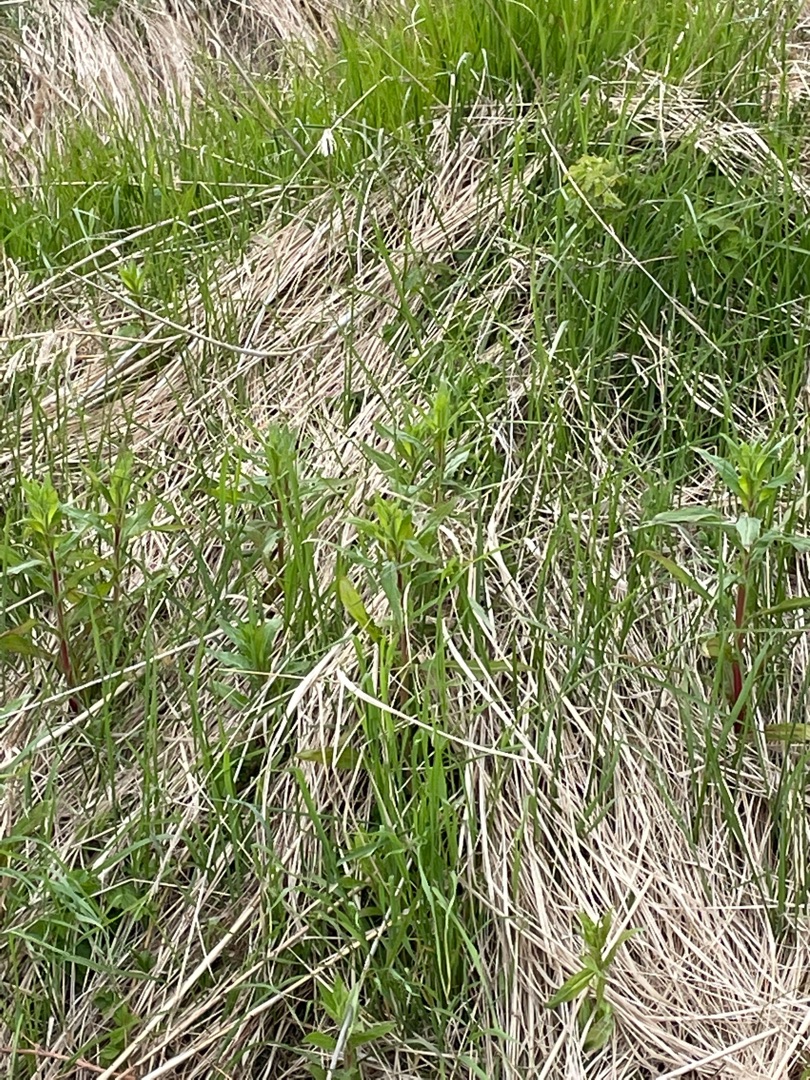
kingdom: Plantae
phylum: Tracheophyta
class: Magnoliopsida
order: Myrtales
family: Onagraceae
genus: Epilobium
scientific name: Epilobium hirsutum
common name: Lådden dueurt
